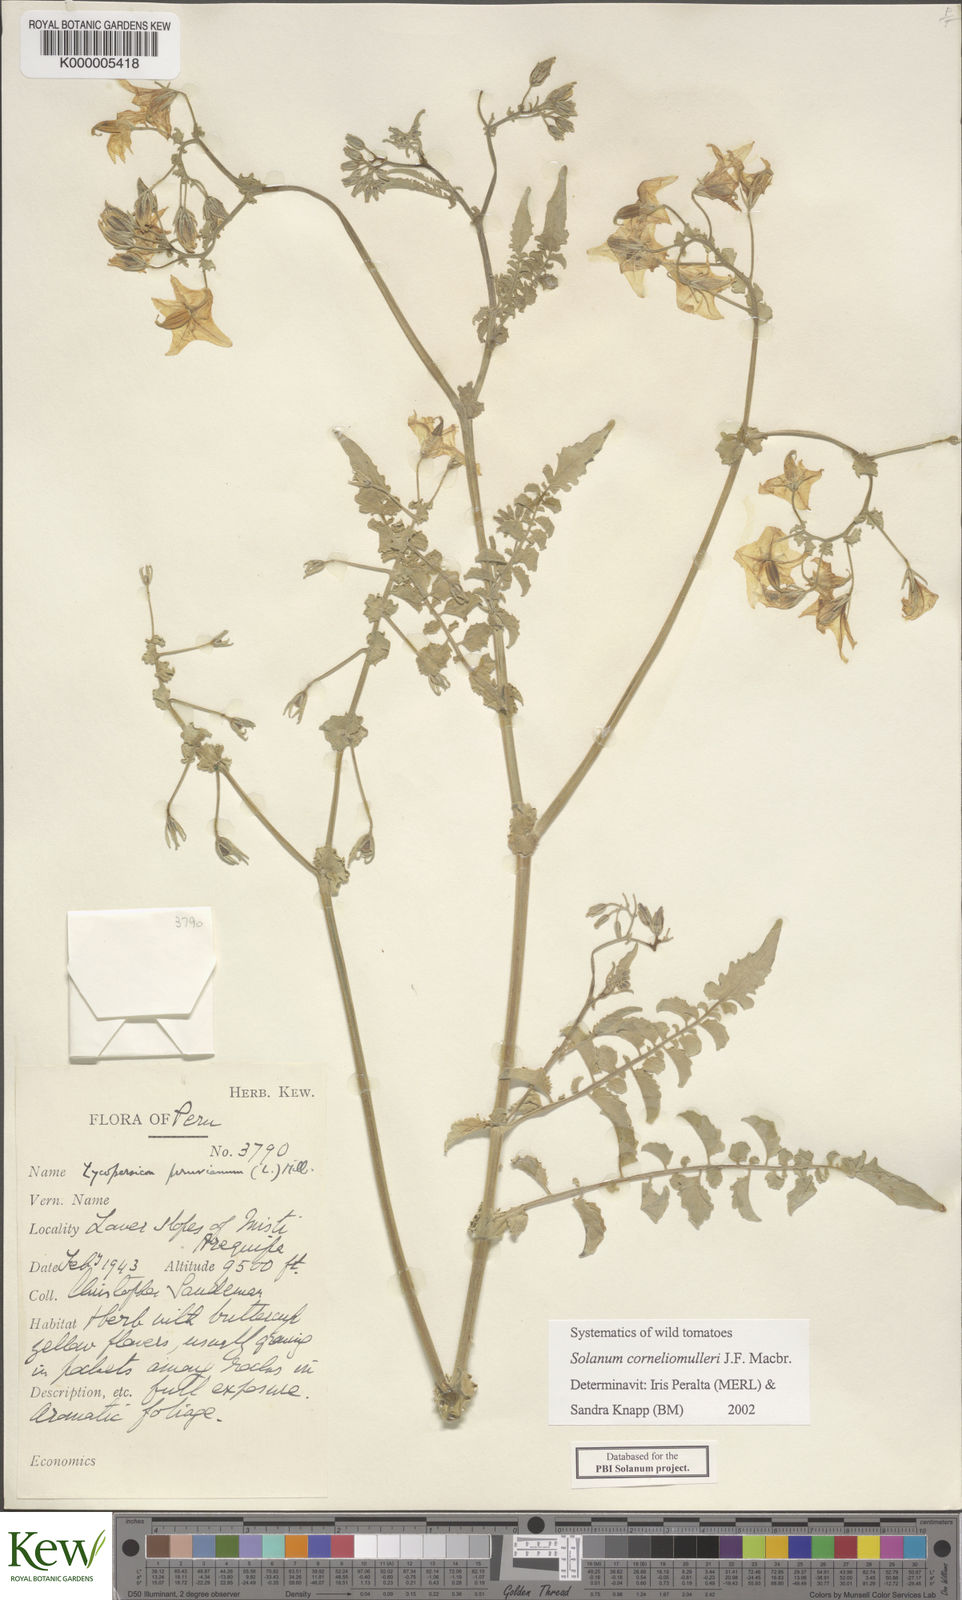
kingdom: Plantae
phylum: Tracheophyta
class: Magnoliopsida
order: Solanales
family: Solanaceae
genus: Solanum
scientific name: Solanum corneliomulleri
